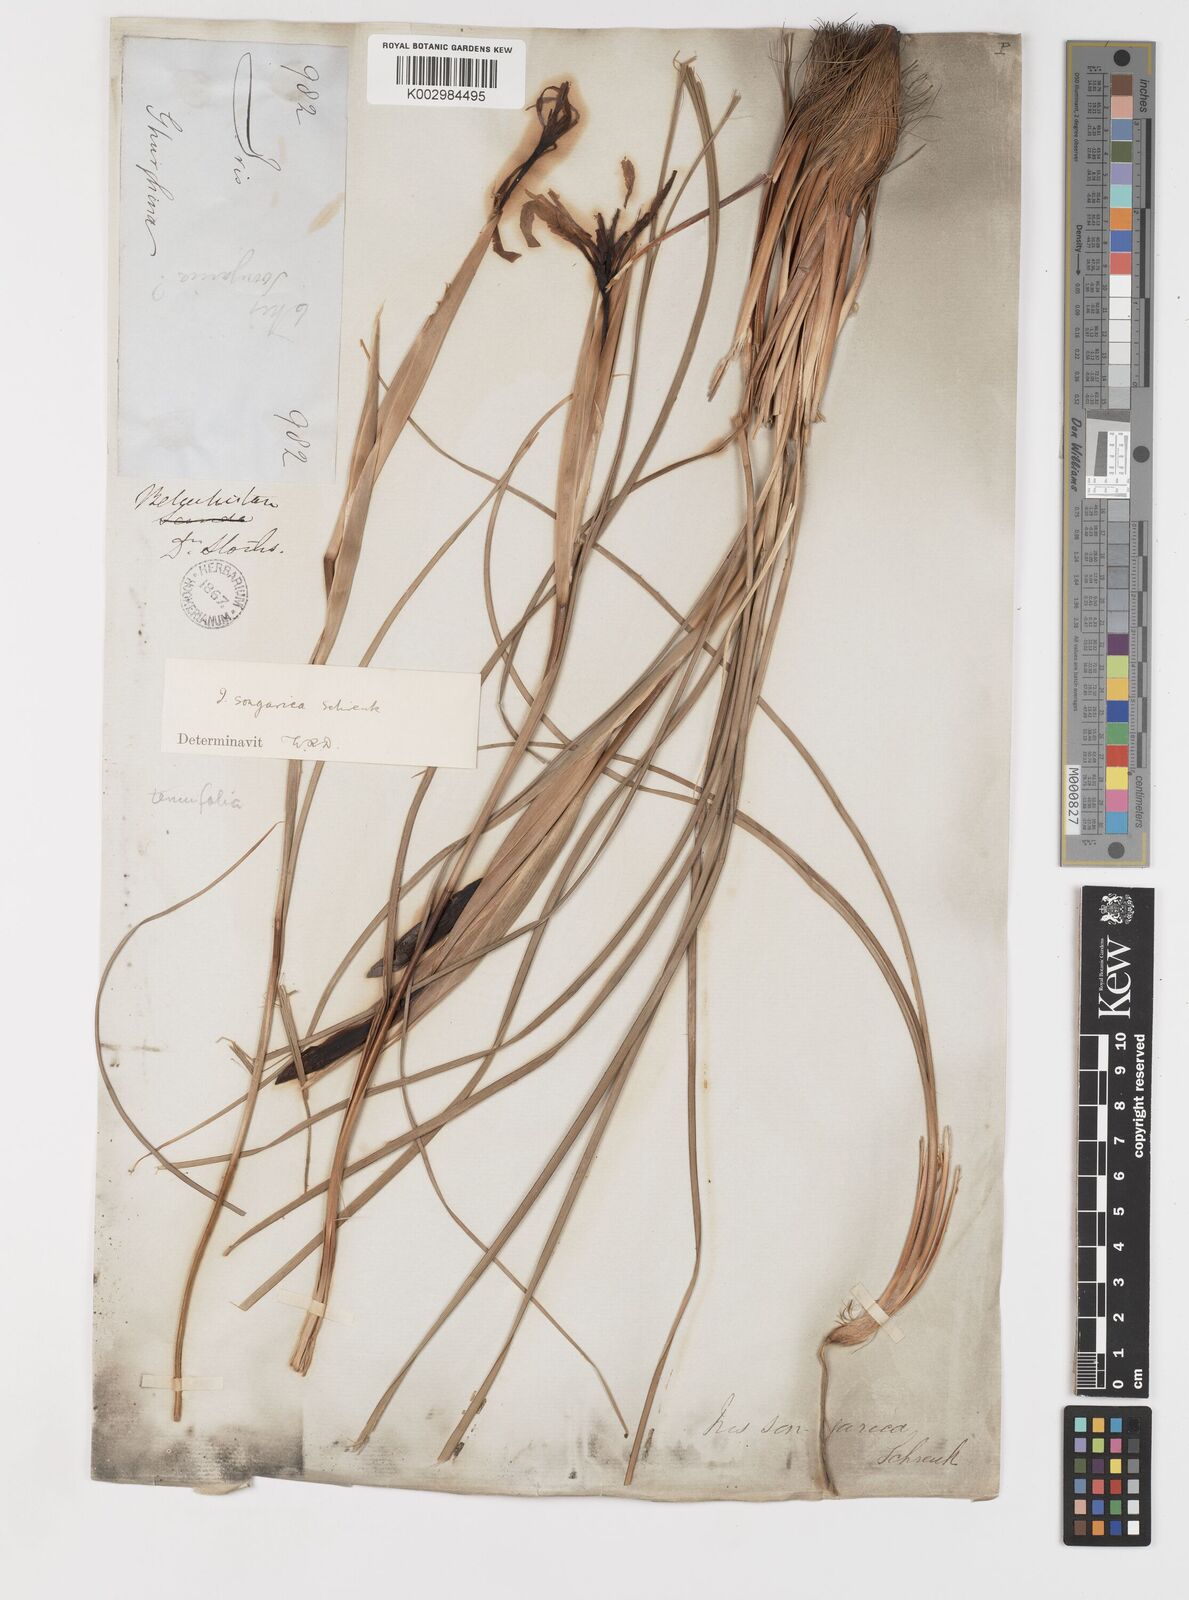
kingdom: Plantae
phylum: Tracheophyta
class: Liliopsida
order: Asparagales
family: Iridaceae
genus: Iris
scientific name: Iris songarica
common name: Songar iris
